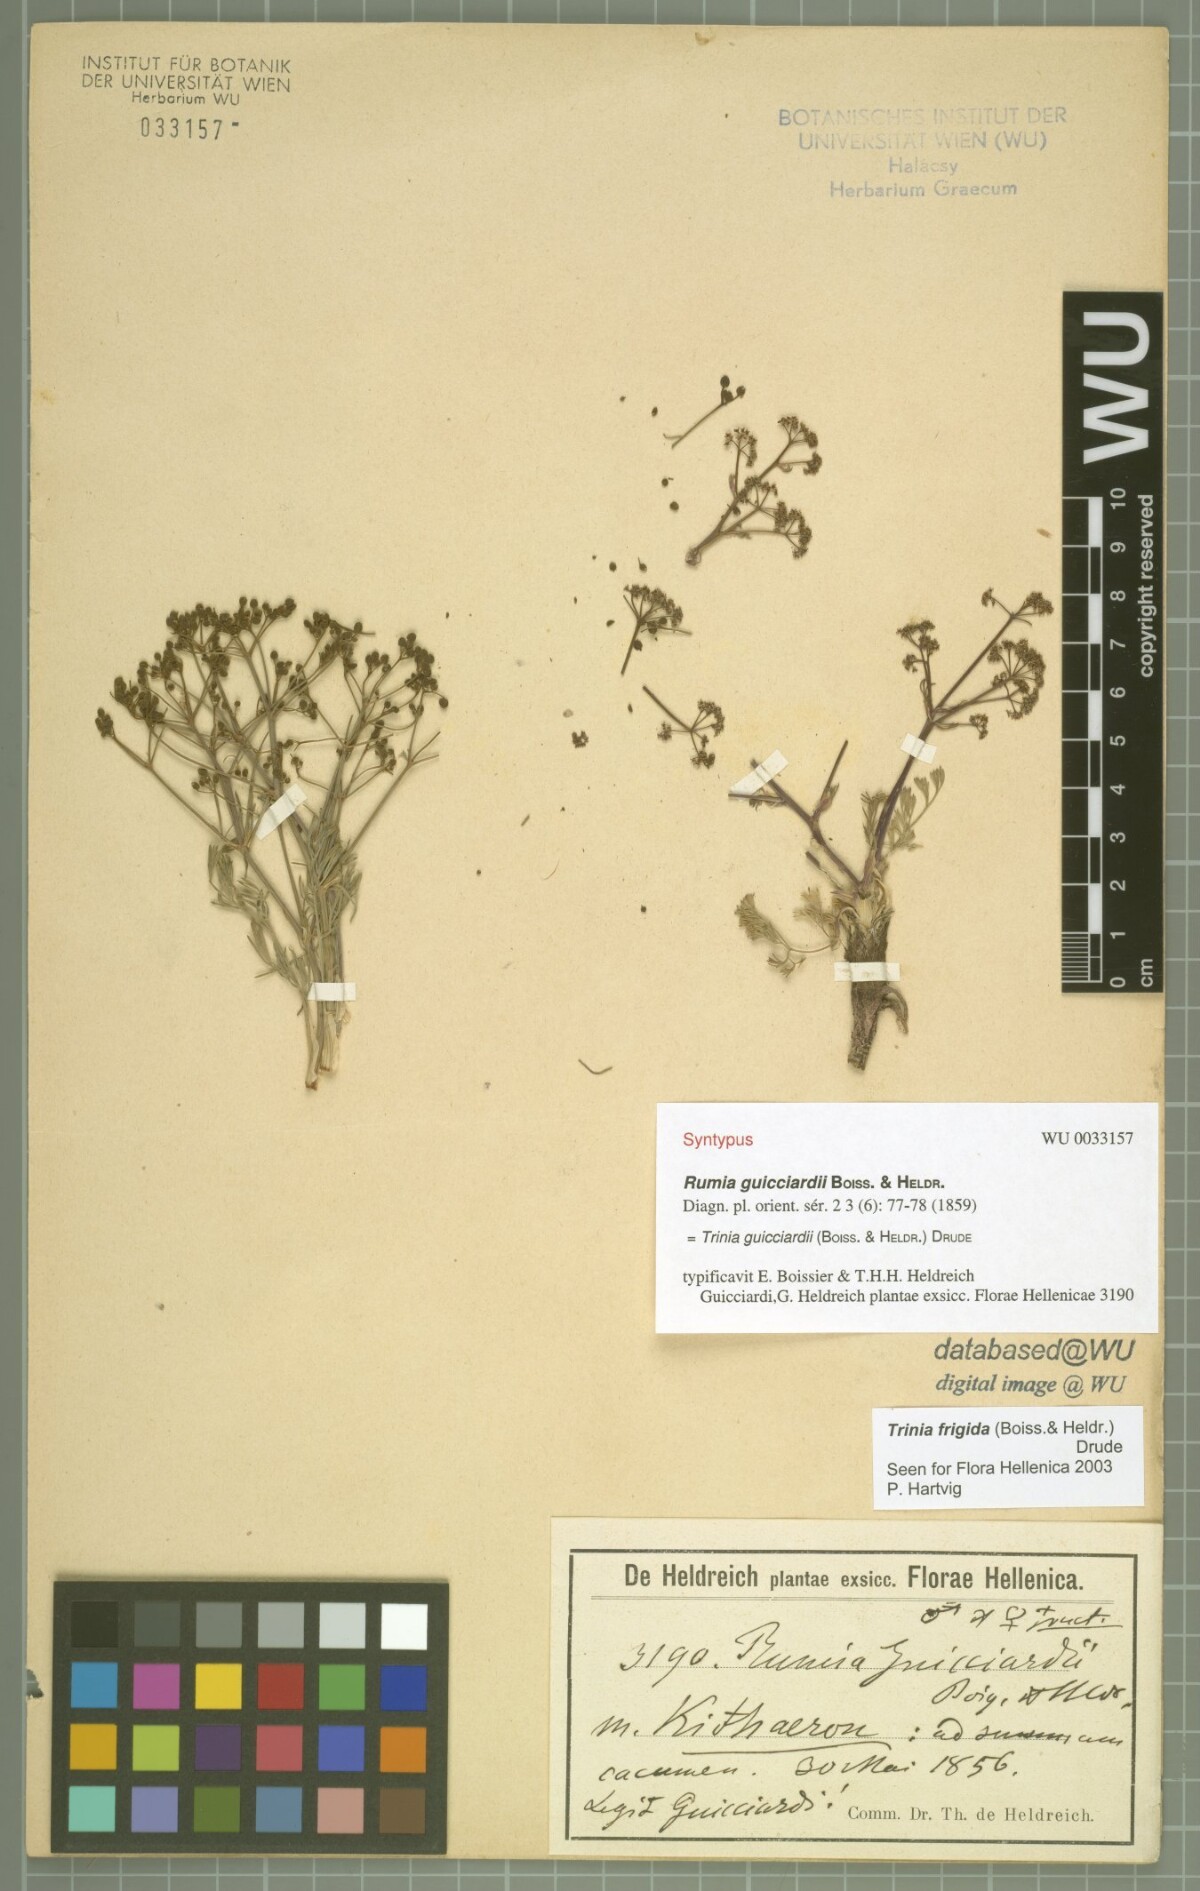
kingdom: Plantae
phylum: Tracheophyta
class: Magnoliopsida
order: Apiales
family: Apiaceae
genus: Trinia
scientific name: Trinia guicciardii
